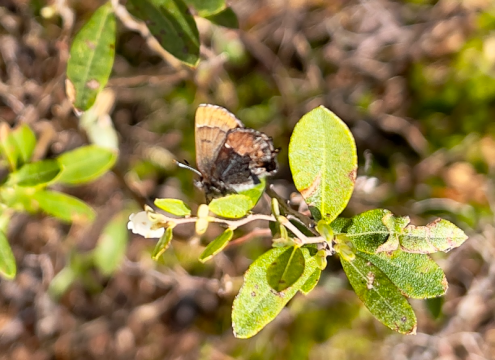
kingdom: Animalia
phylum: Arthropoda
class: Insecta
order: Lepidoptera
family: Lycaenidae
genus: Incisalia
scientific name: Incisalia henrici
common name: Henry's Elfin
